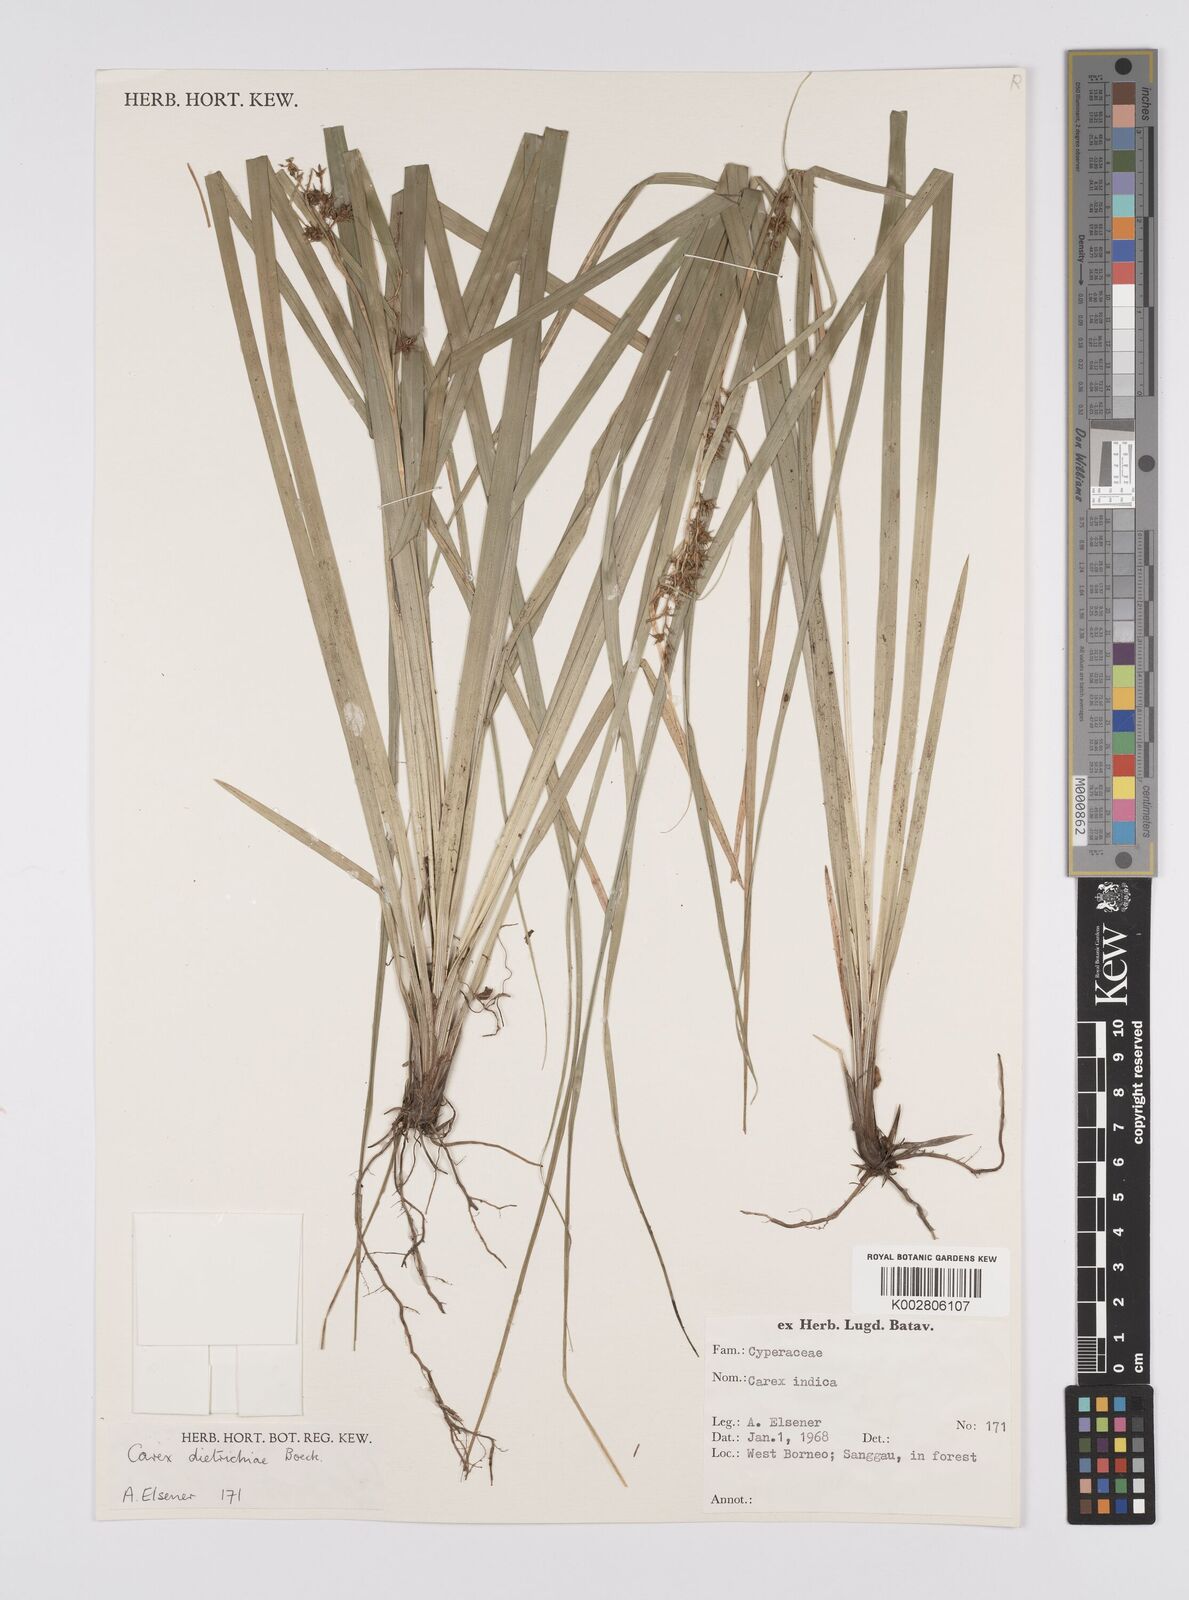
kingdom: Plantae
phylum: Tracheophyta
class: Liliopsida
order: Poales
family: Cyperaceae
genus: Carex
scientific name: Carex indica
